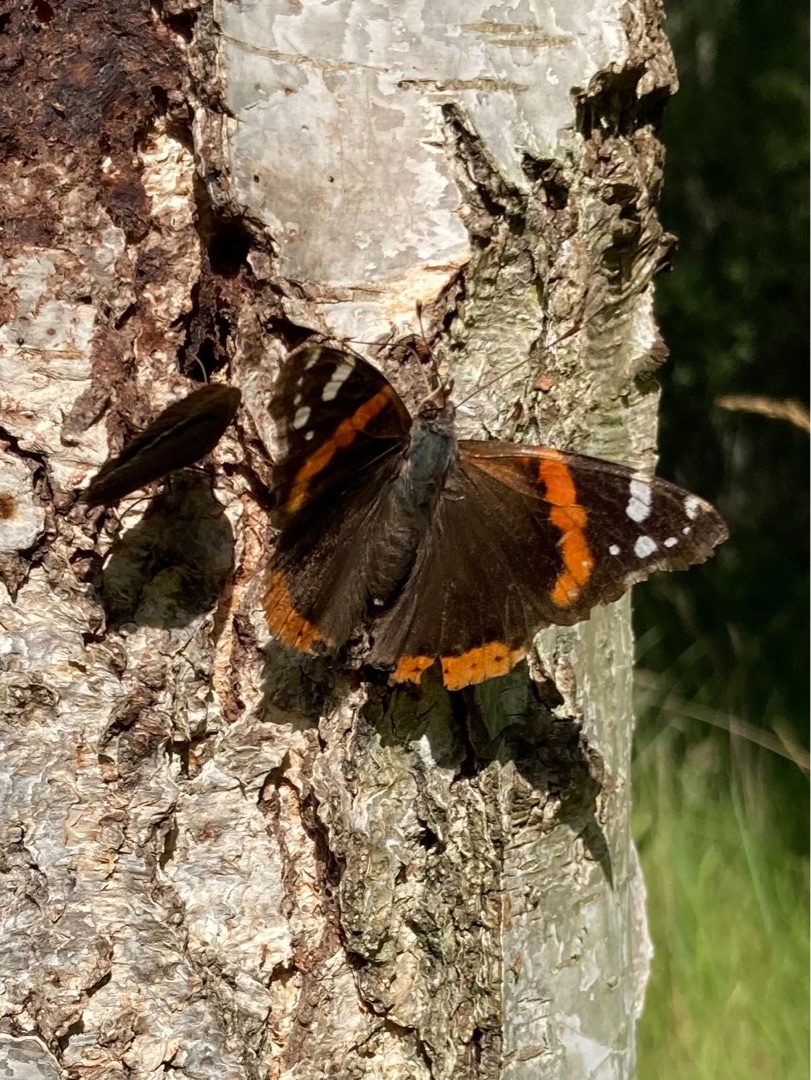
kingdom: Animalia
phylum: Arthropoda
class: Insecta
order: Lepidoptera
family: Nymphalidae
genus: Vanessa
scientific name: Vanessa atalanta
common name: Admiral
